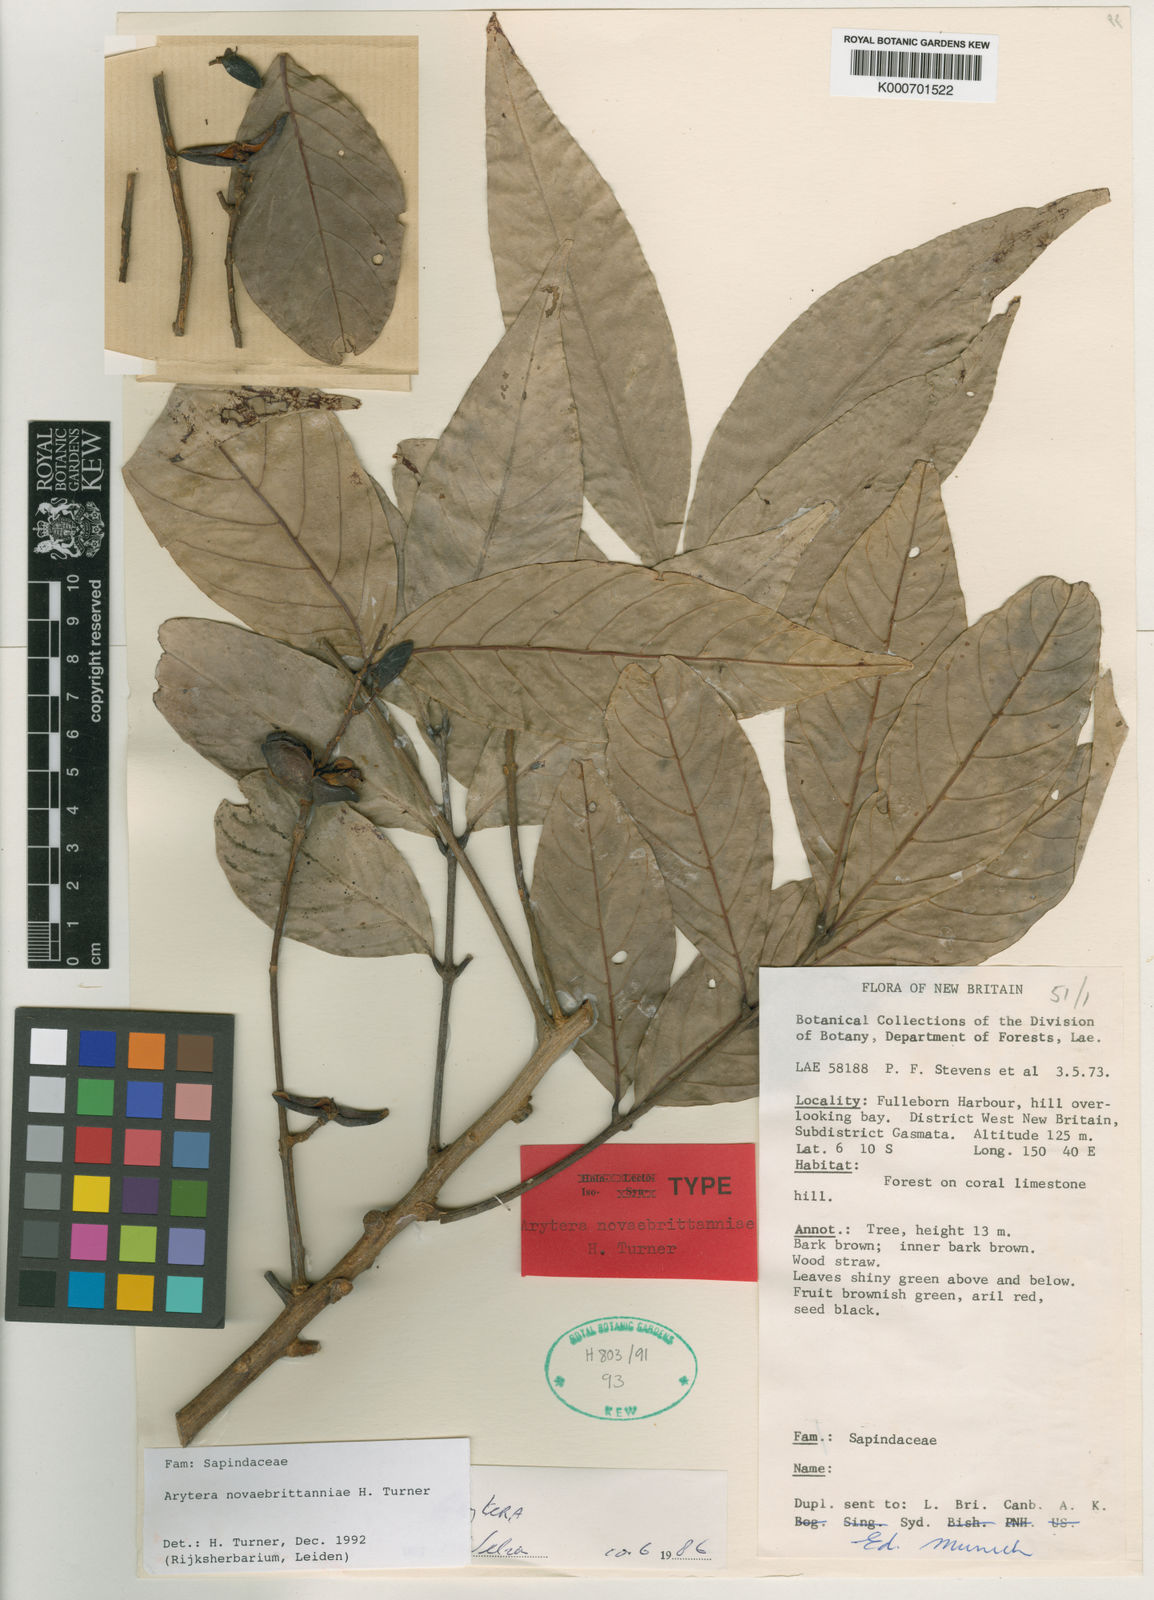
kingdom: Plantae
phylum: Tracheophyta
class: Magnoliopsida
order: Sapindales
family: Sapindaceae
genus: Arytera
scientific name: Arytera novaebrittanniae
